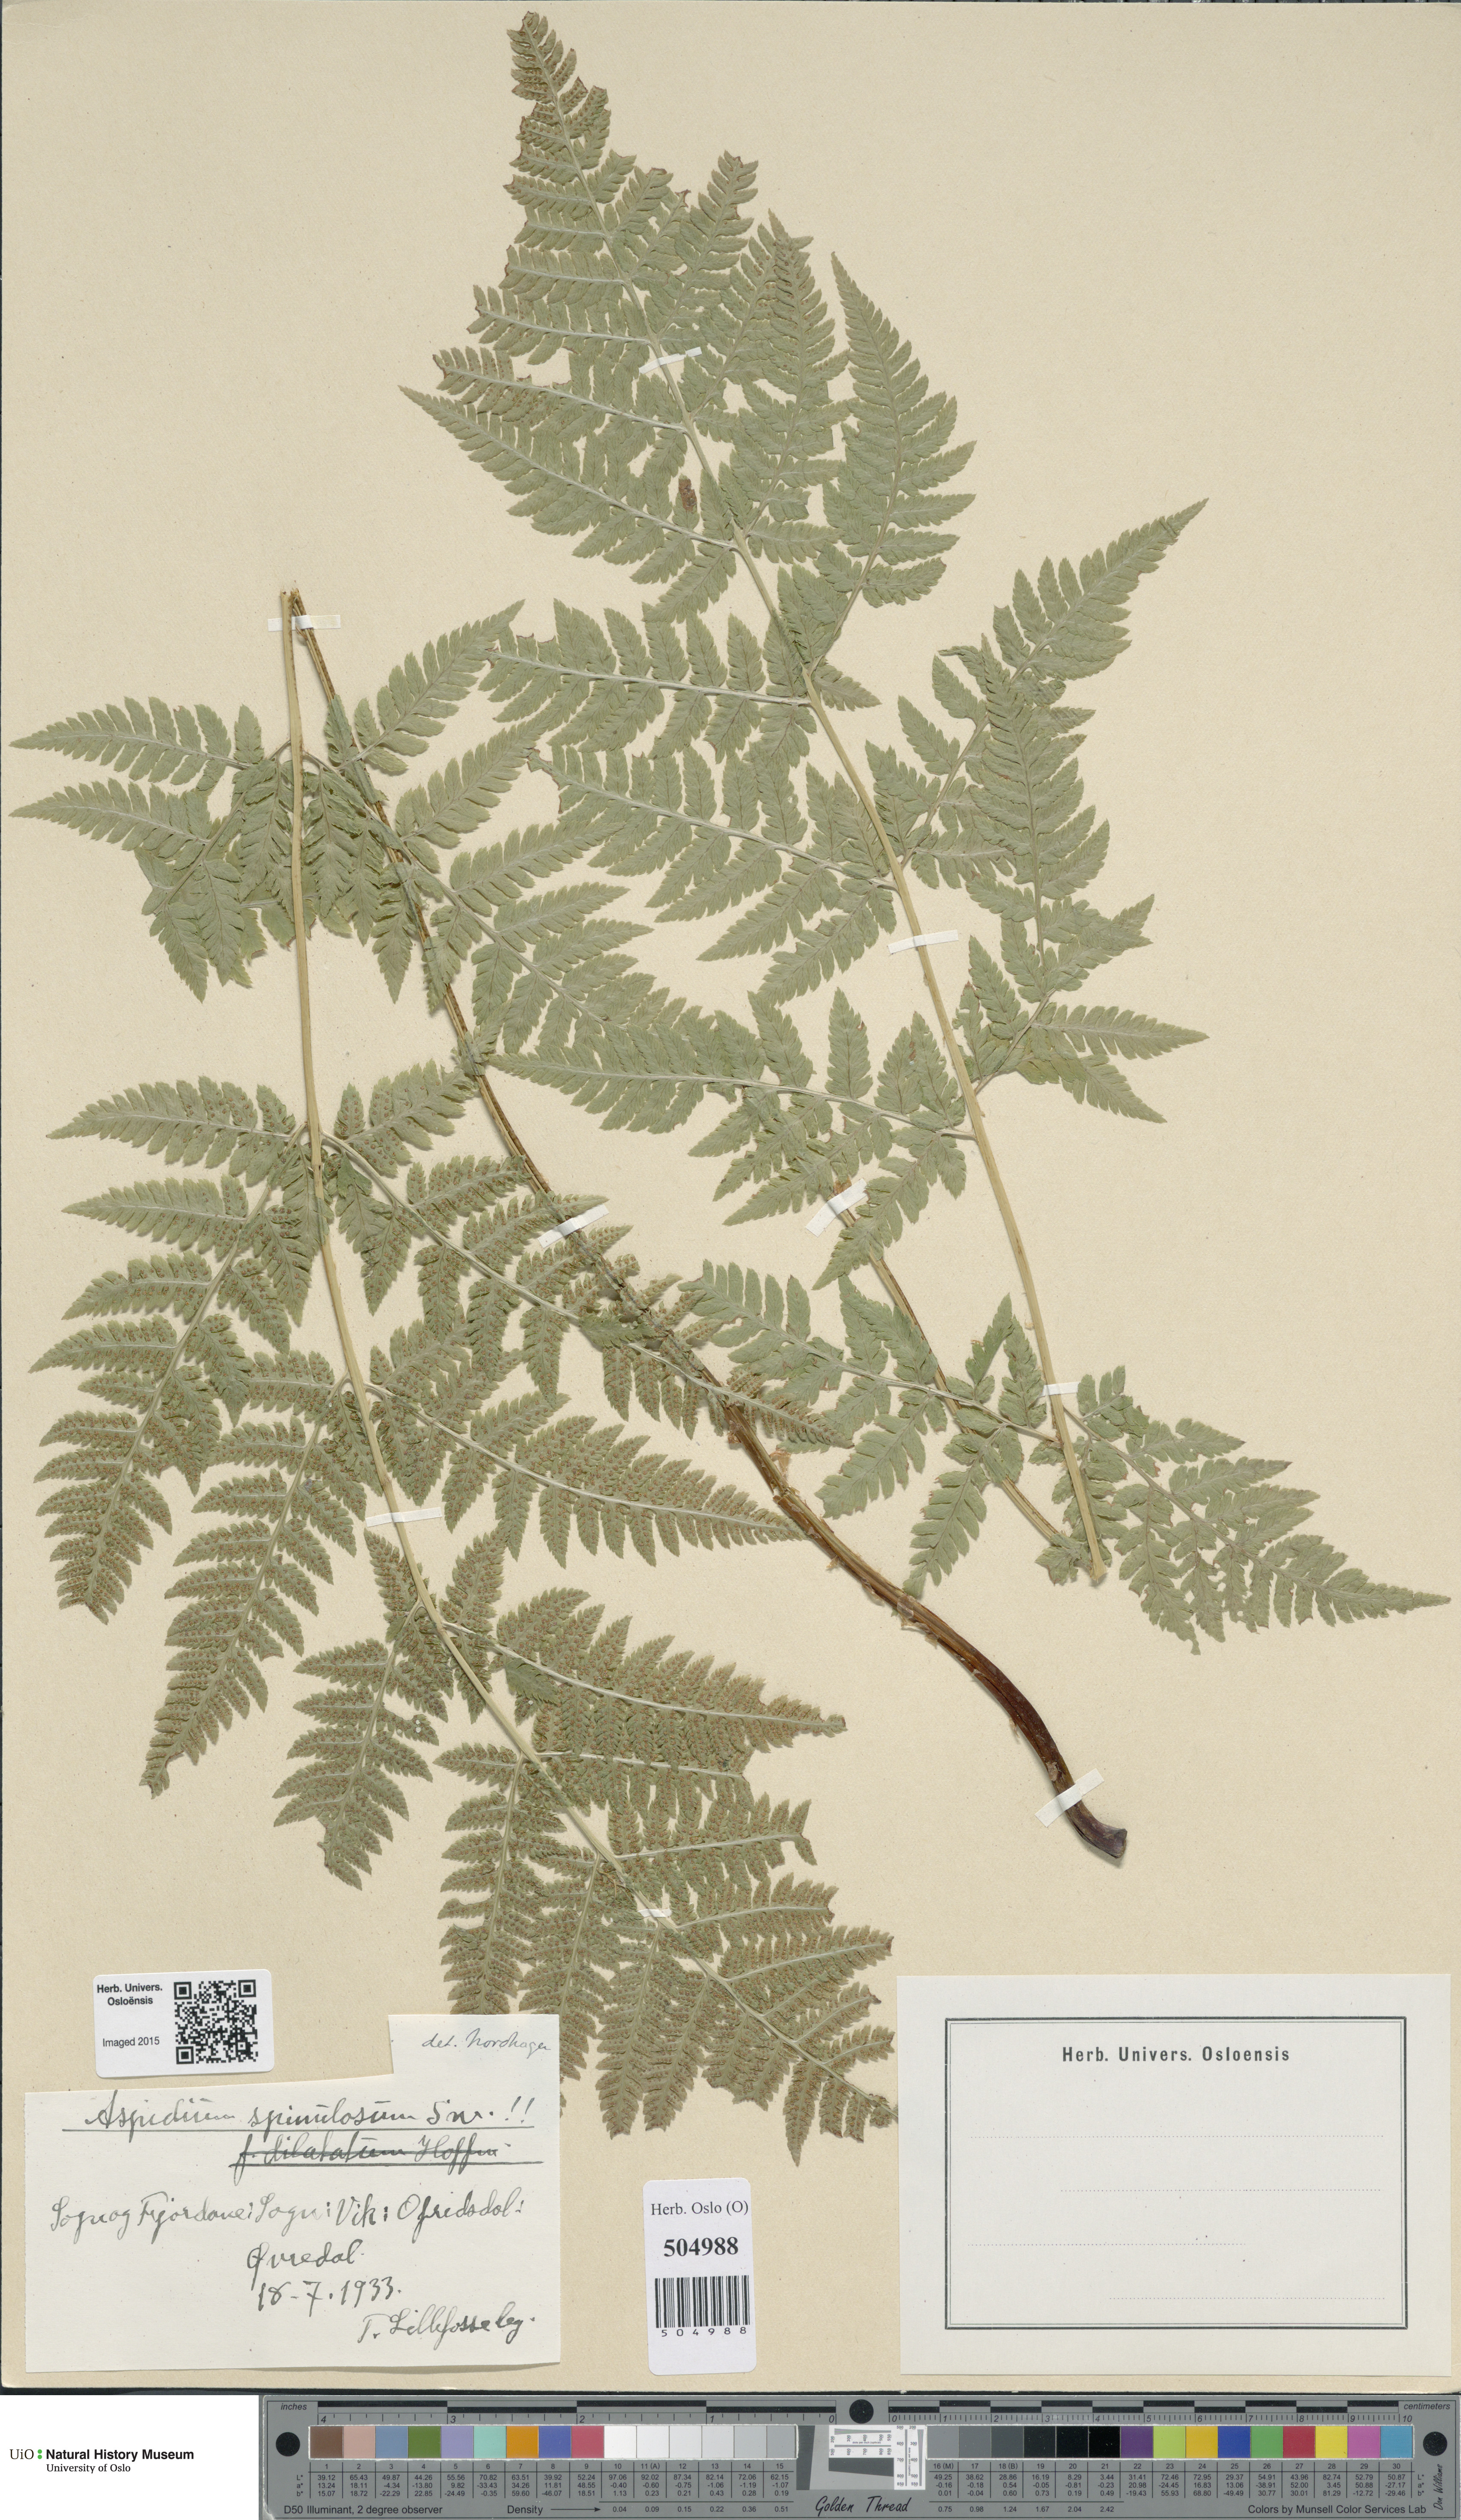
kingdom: Plantae
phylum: Tracheophyta
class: Polypodiopsida
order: Polypodiales
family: Dryopteridaceae
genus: Dryopteris
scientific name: Dryopteris carthusiana
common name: Narrow buckler-fern
